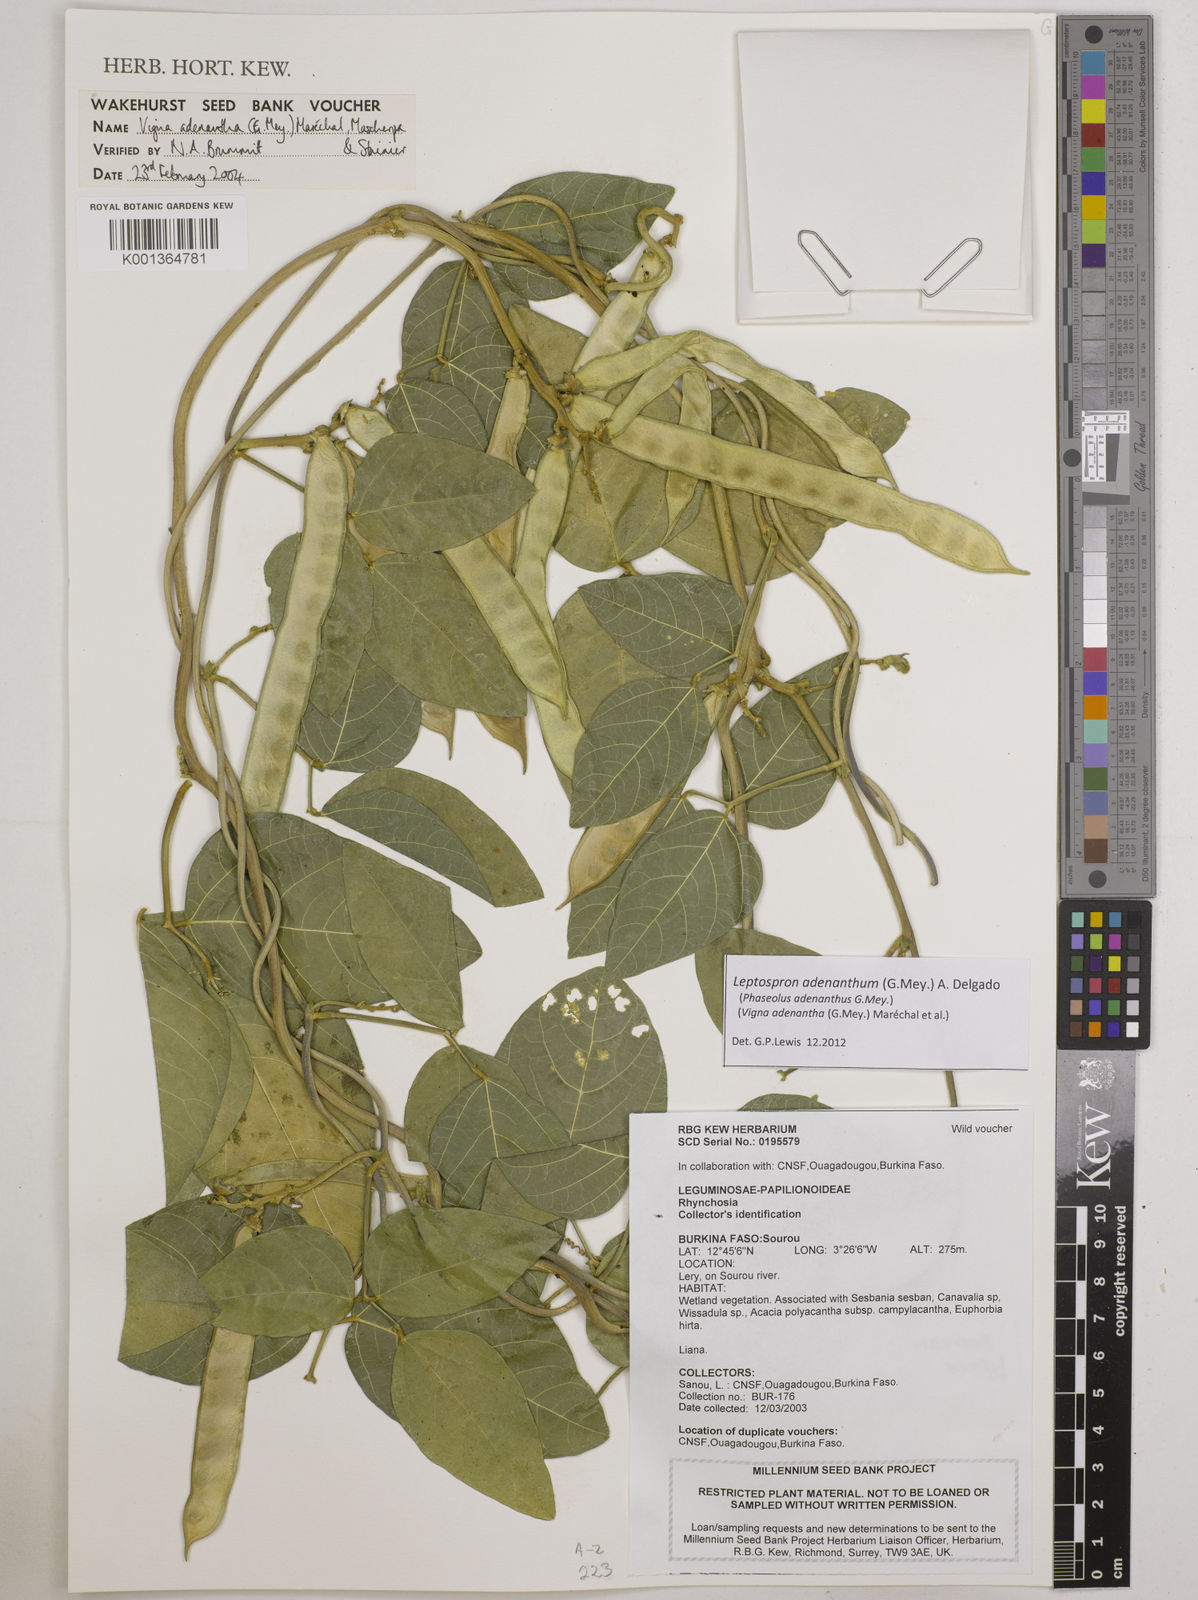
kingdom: Plantae
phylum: Tracheophyta
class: Magnoliopsida
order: Fabales
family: Fabaceae
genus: Leptospron
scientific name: Leptospron adenanthum
